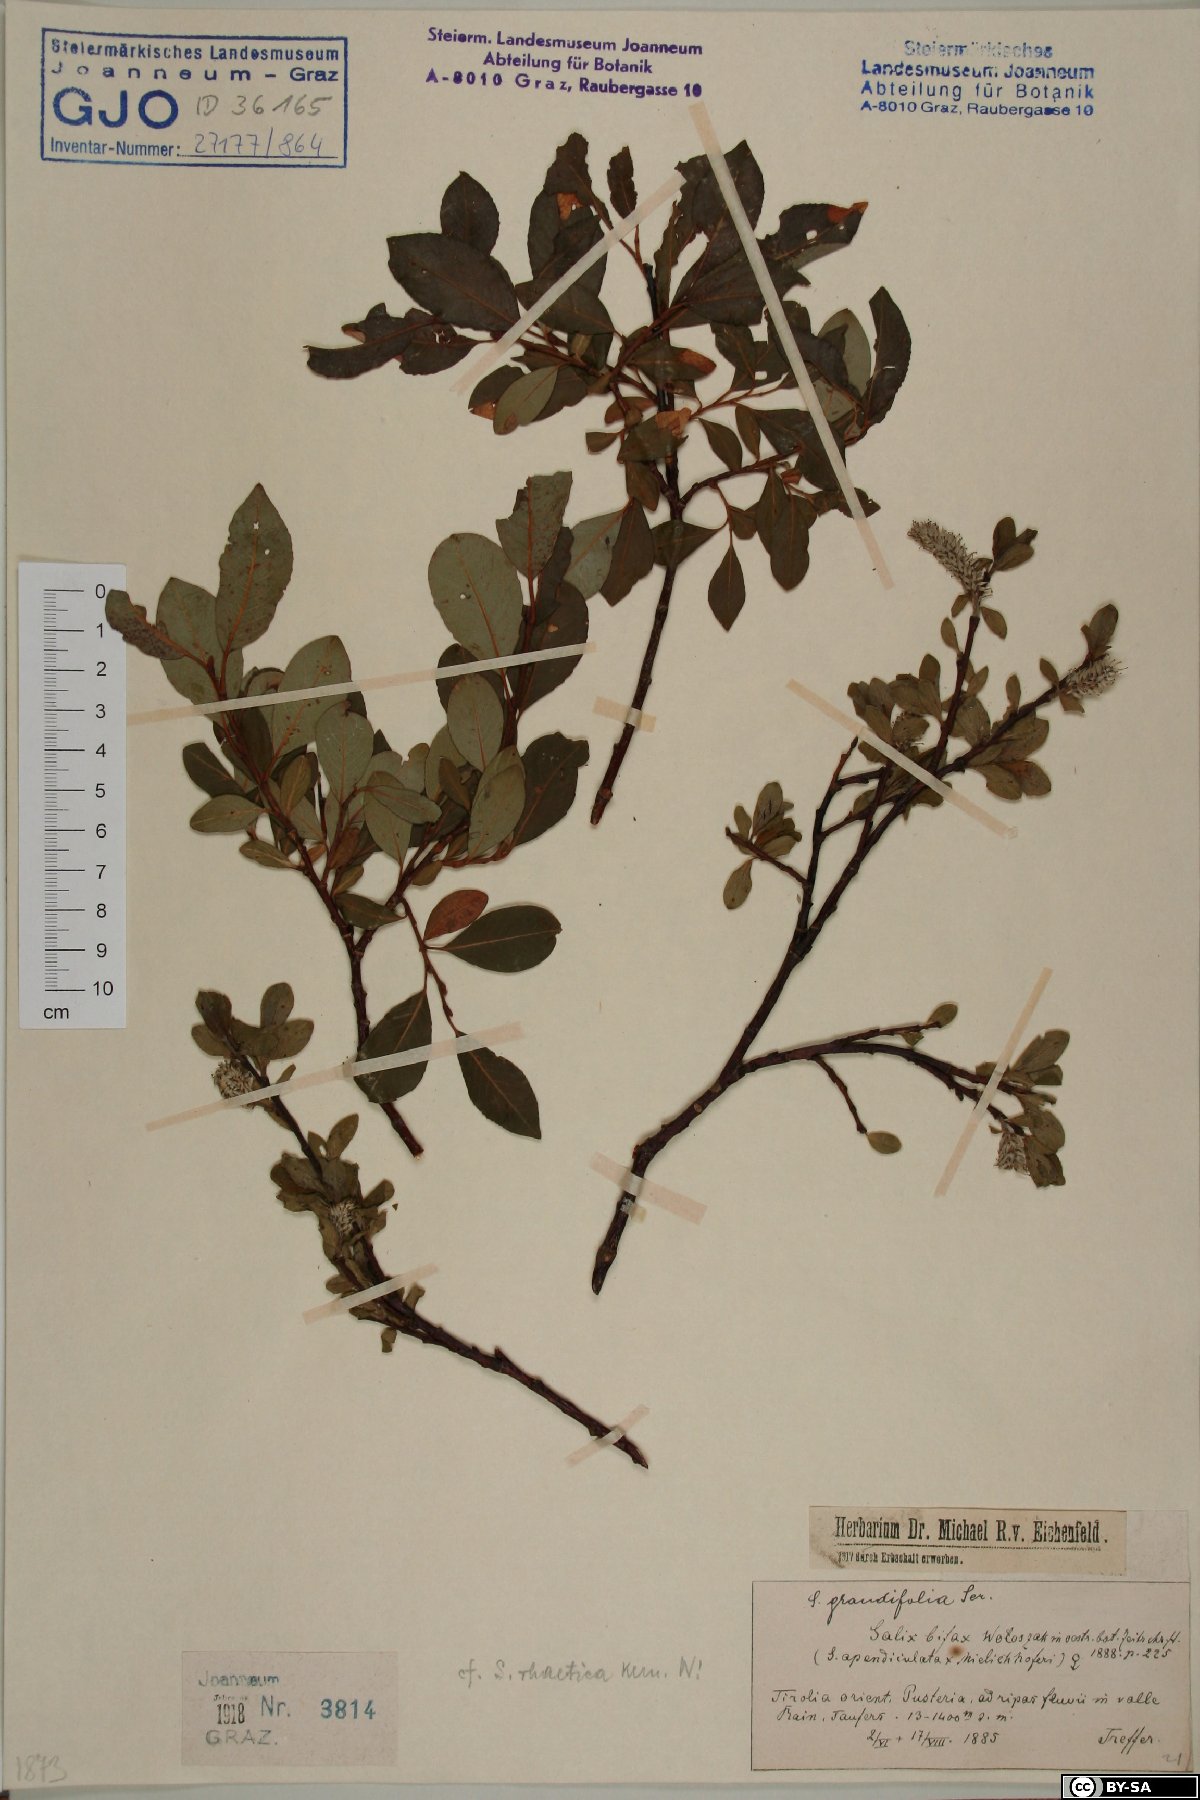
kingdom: Plantae
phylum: Tracheophyta
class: Magnoliopsida
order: Malpighiales
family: Salicaceae
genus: Salix
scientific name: Salix hegetschweileri
